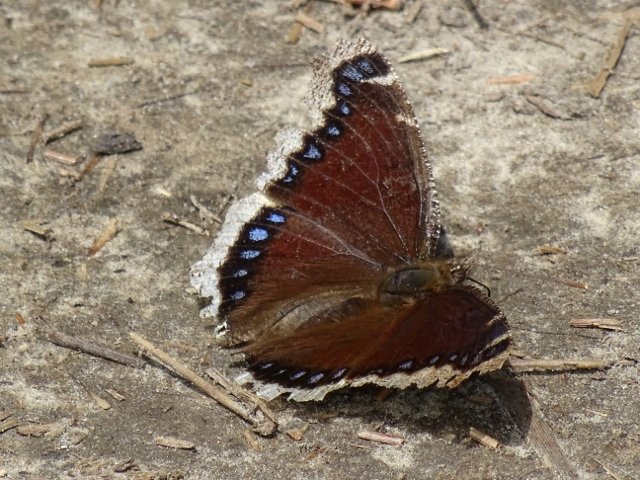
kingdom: Animalia
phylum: Arthropoda
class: Insecta
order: Lepidoptera
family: Nymphalidae
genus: Nymphalis
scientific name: Nymphalis antiopa
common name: Mourning Cloak
